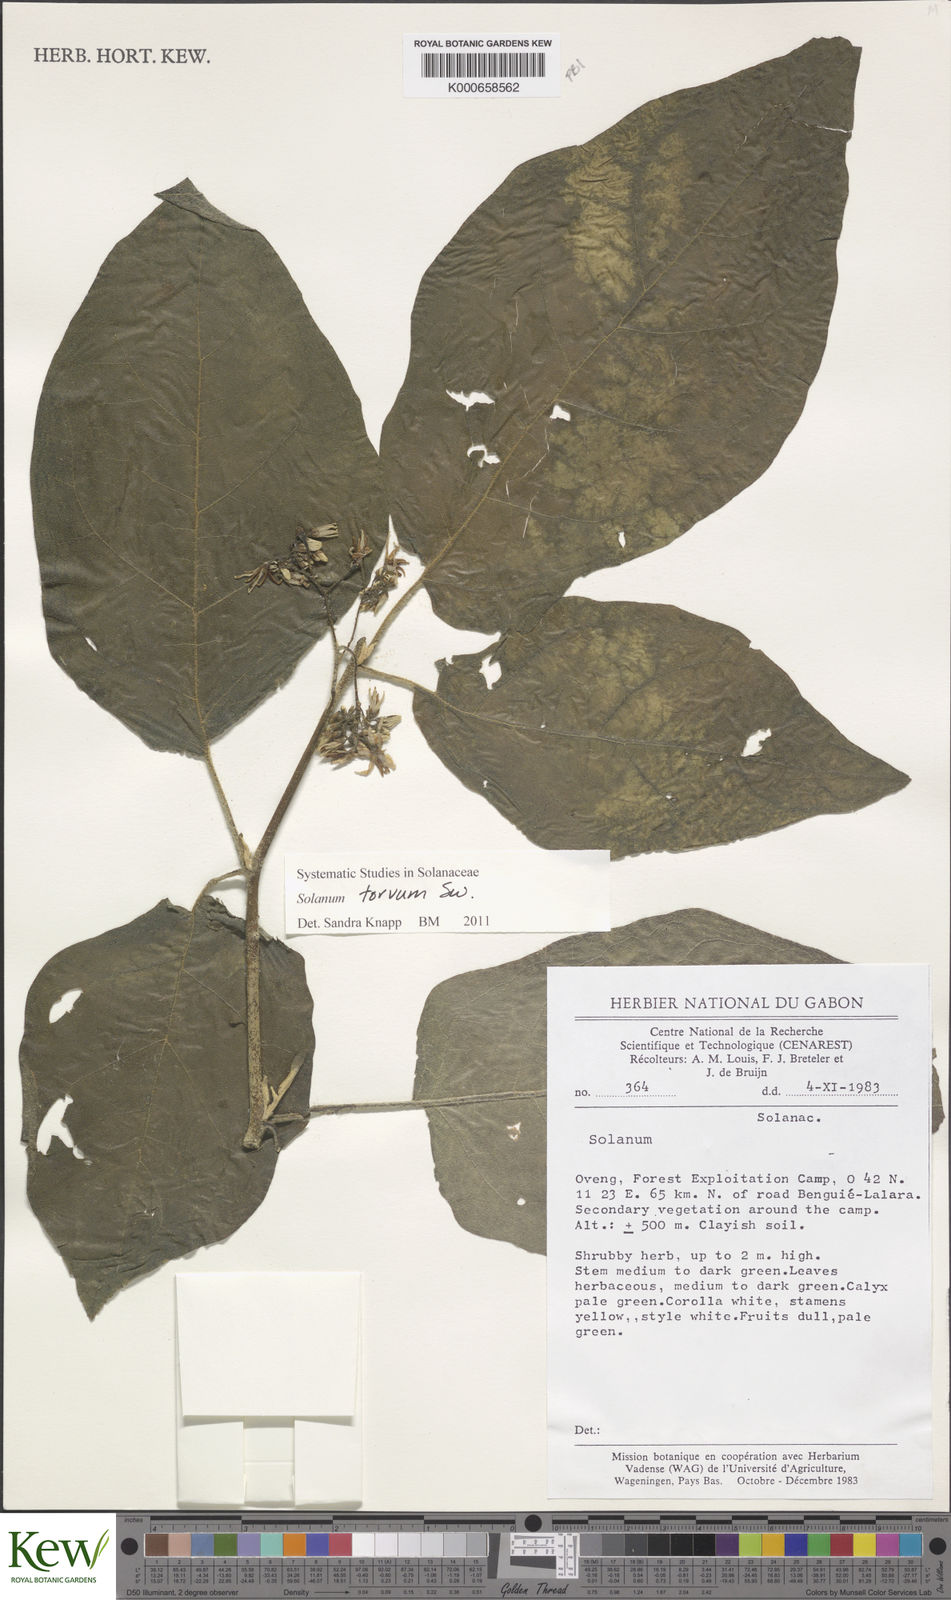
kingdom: Plantae
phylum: Tracheophyta
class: Magnoliopsida
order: Solanales
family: Solanaceae
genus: Solanum
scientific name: Solanum torvum
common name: Turkey berry
